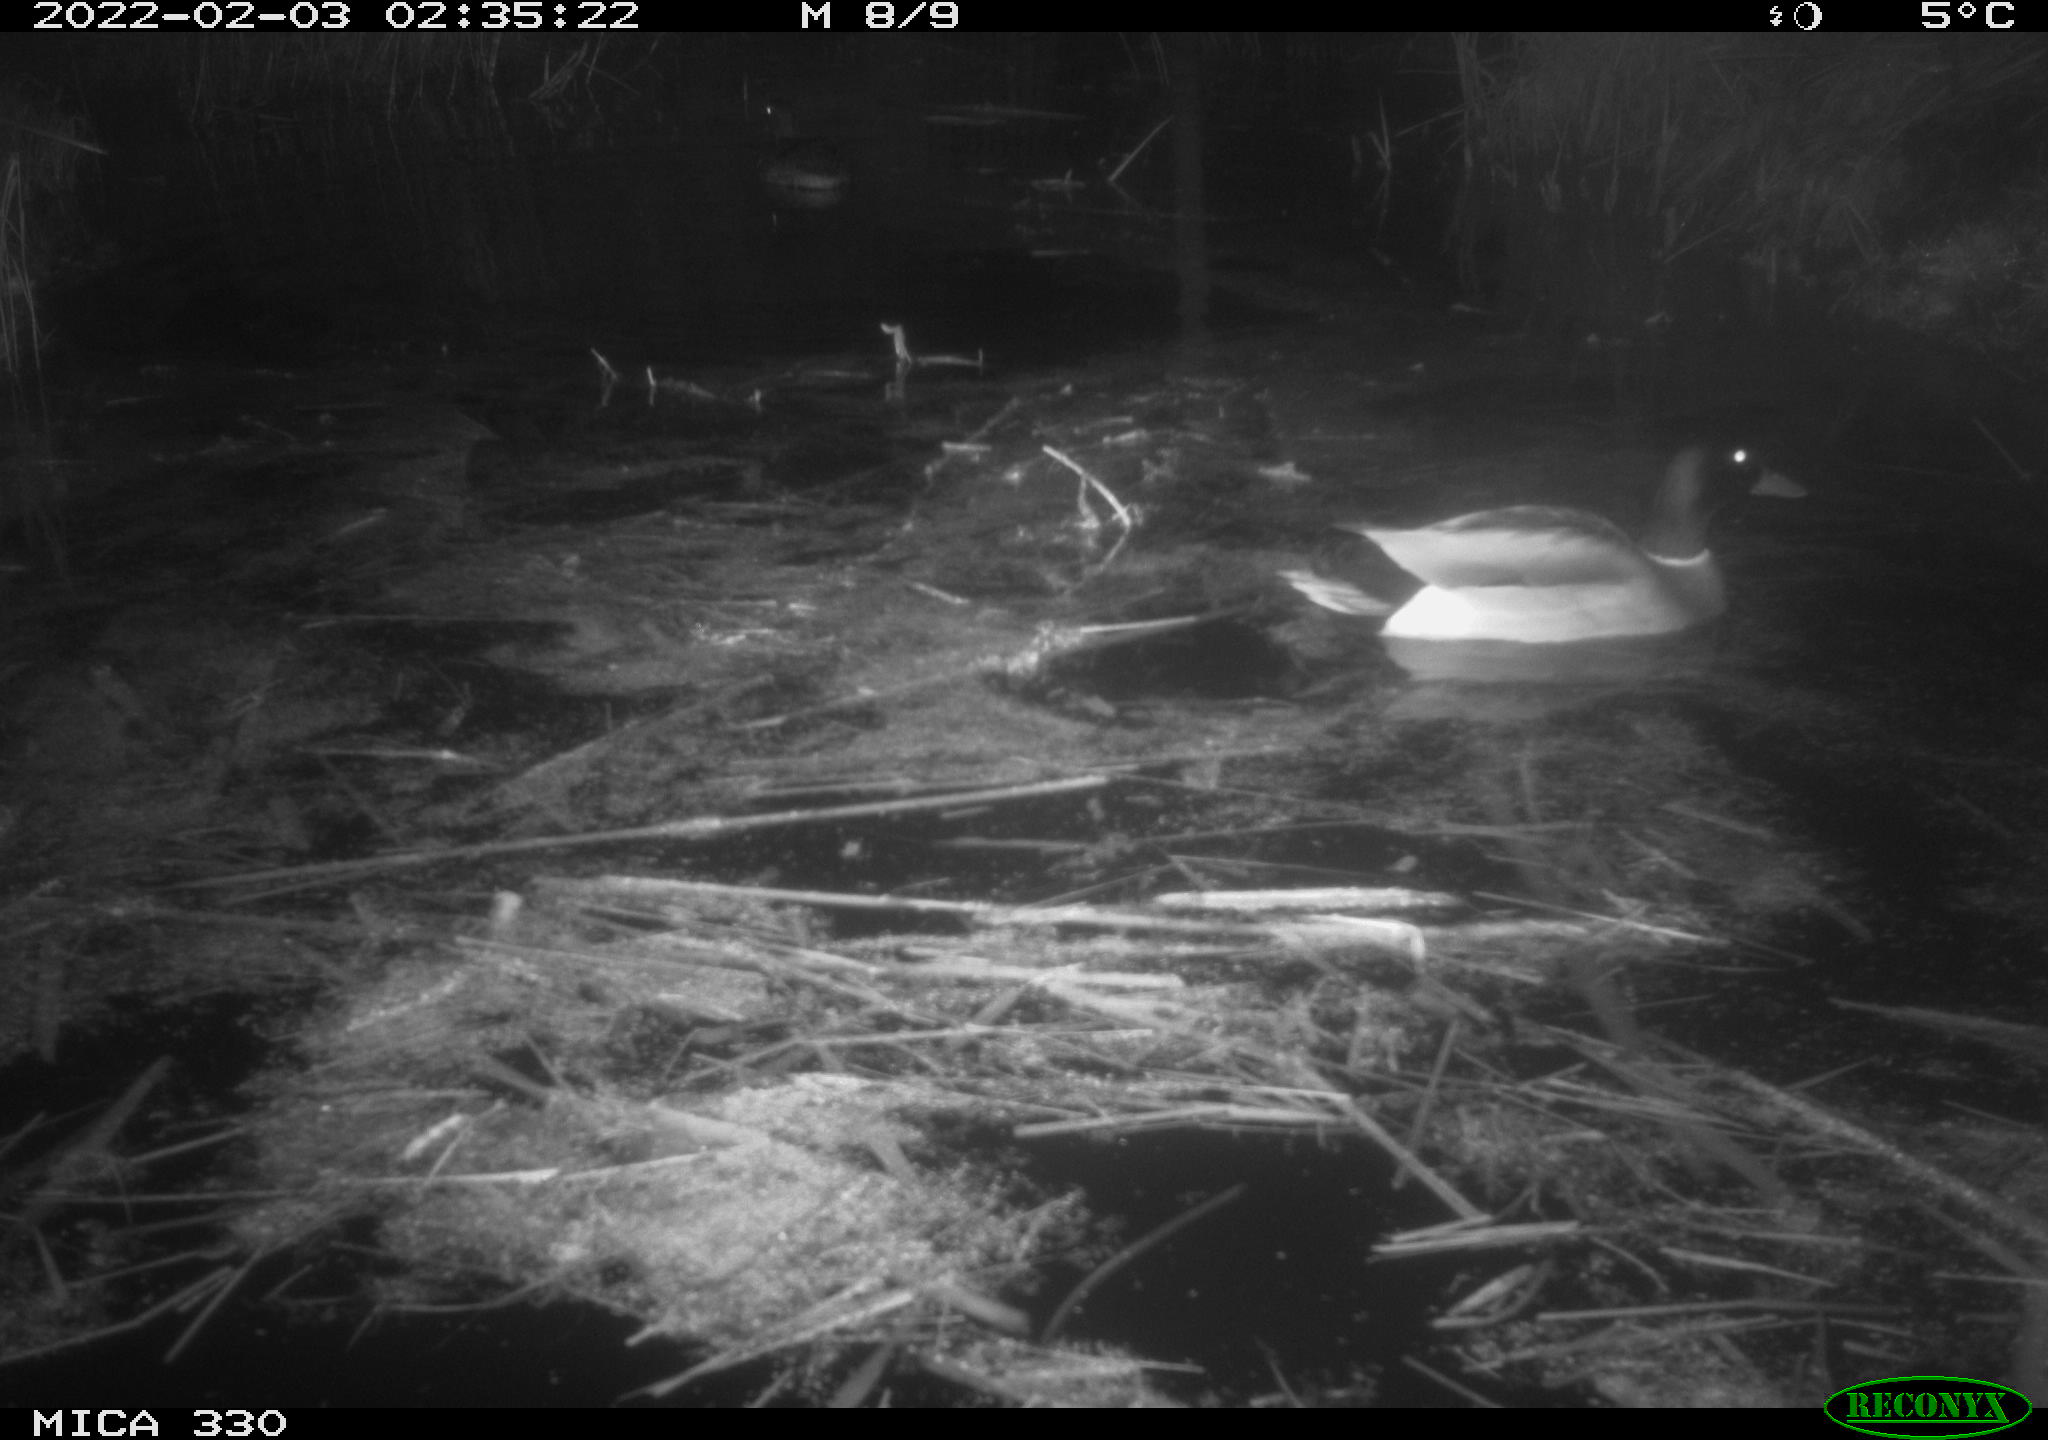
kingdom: Animalia
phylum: Chordata
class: Aves
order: Anseriformes
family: Anatidae
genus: Anas
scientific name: Anas platyrhynchos
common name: Mallard
